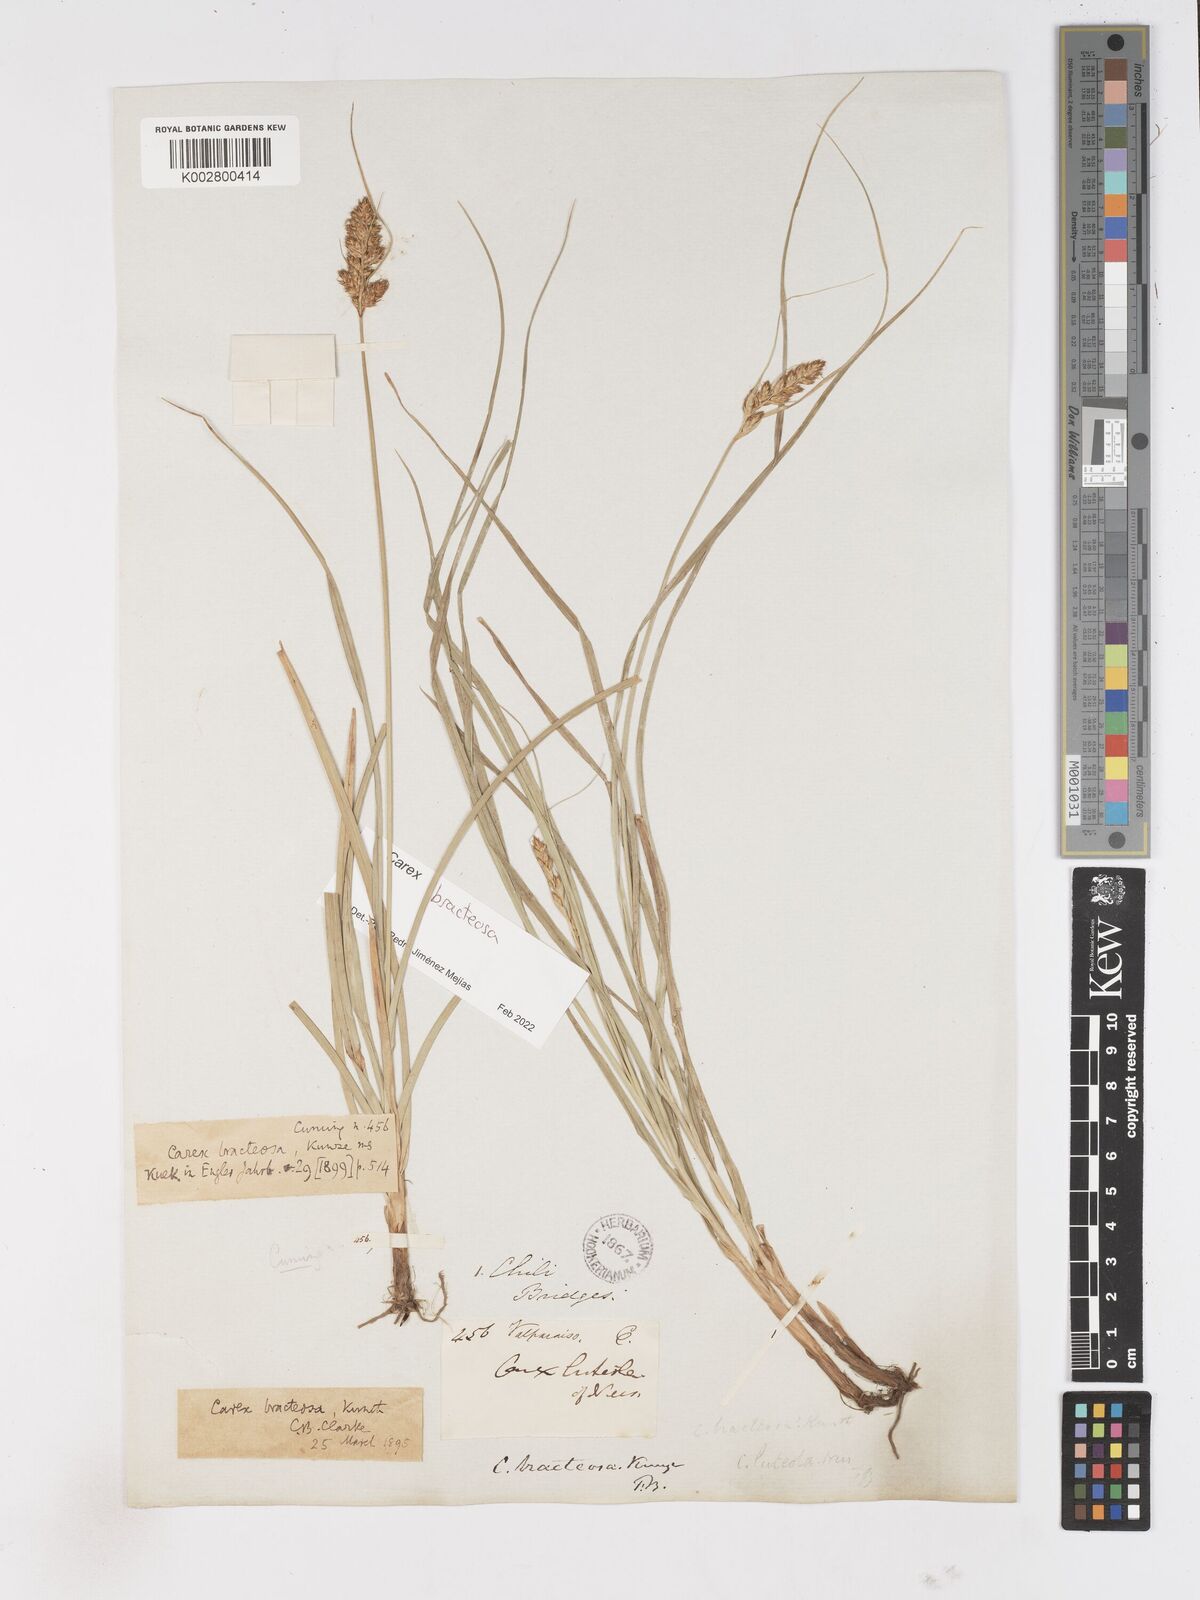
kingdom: Plantae
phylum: Tracheophyta
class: Liliopsida
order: Poales
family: Cyperaceae
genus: Carex
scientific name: Carex bracteosa
